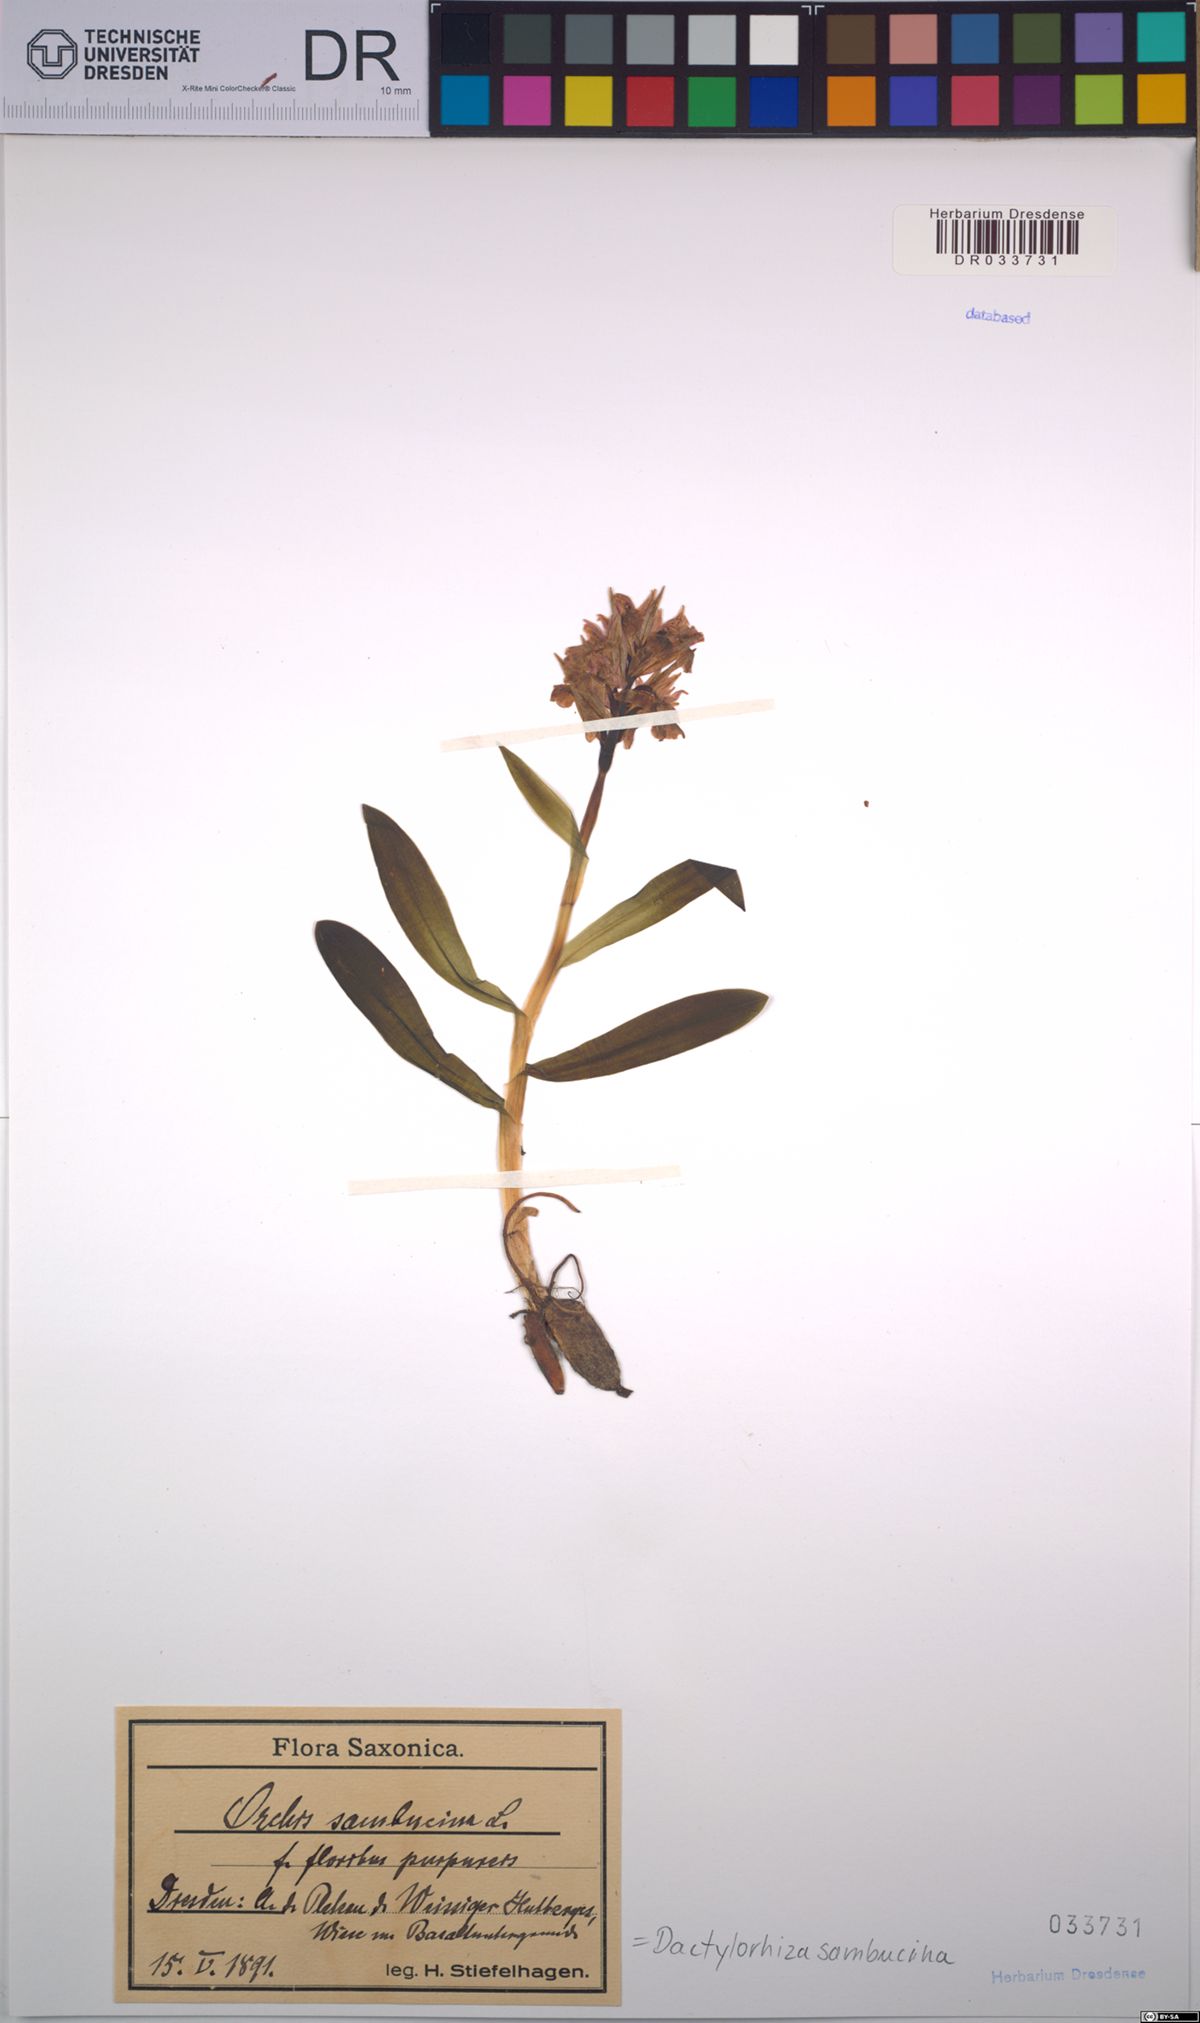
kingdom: Plantae
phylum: Tracheophyta
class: Liliopsida
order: Asparagales
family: Orchidaceae
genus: Dactylorhiza
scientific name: Dactylorhiza sambucina
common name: Elder-flowered orchid
